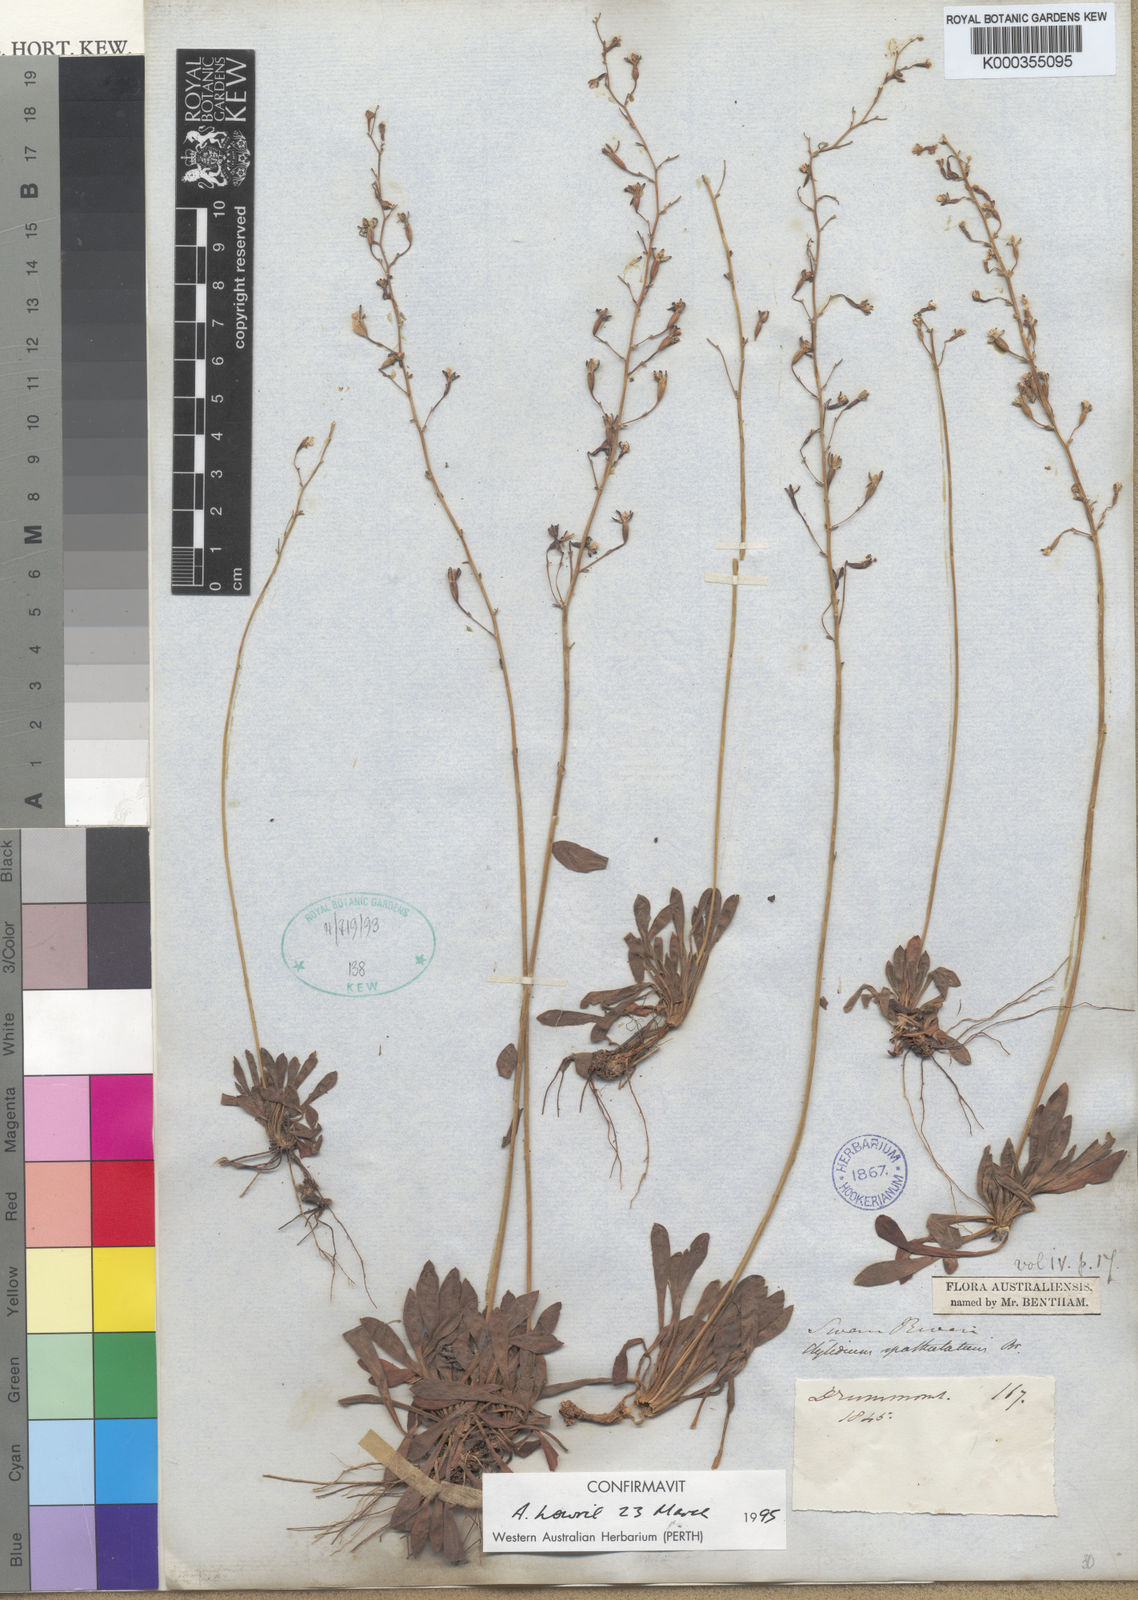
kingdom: Plantae
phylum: Tracheophyta
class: Magnoliopsida
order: Asterales
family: Stylidiaceae
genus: Stylidium
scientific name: Stylidium spathulatum
